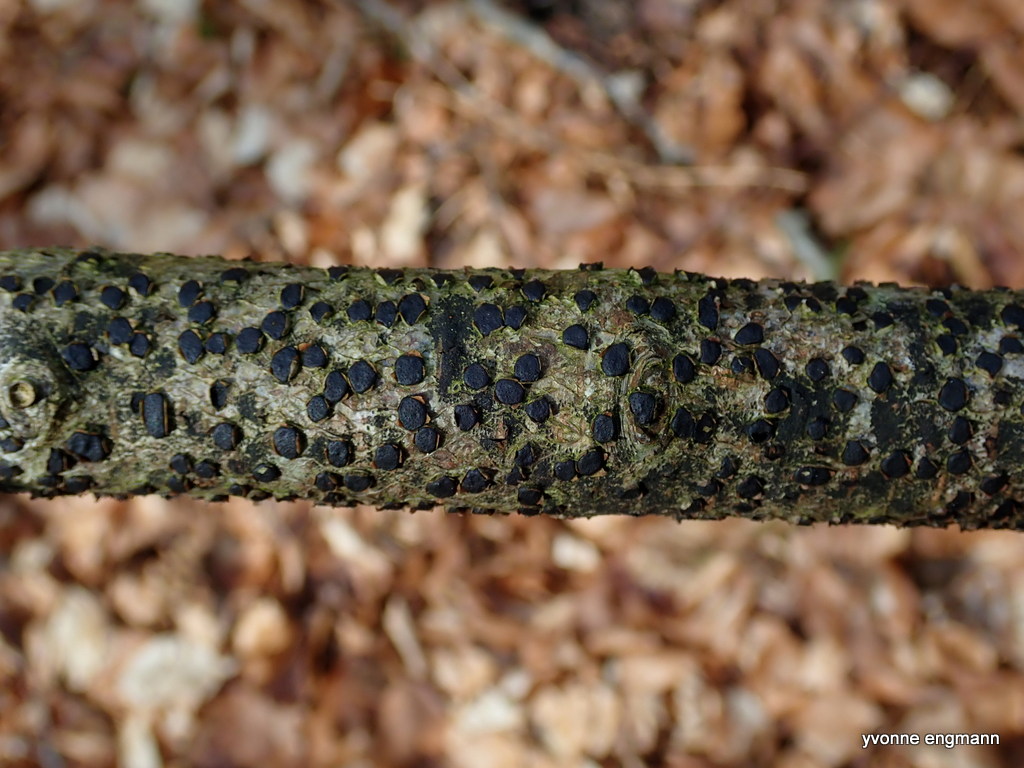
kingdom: Fungi
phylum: Ascomycota
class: Sordariomycetes
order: Xylariales
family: Diatrypaceae
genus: Diatrype
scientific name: Diatrype disciformis
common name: kant-kulskorpe
